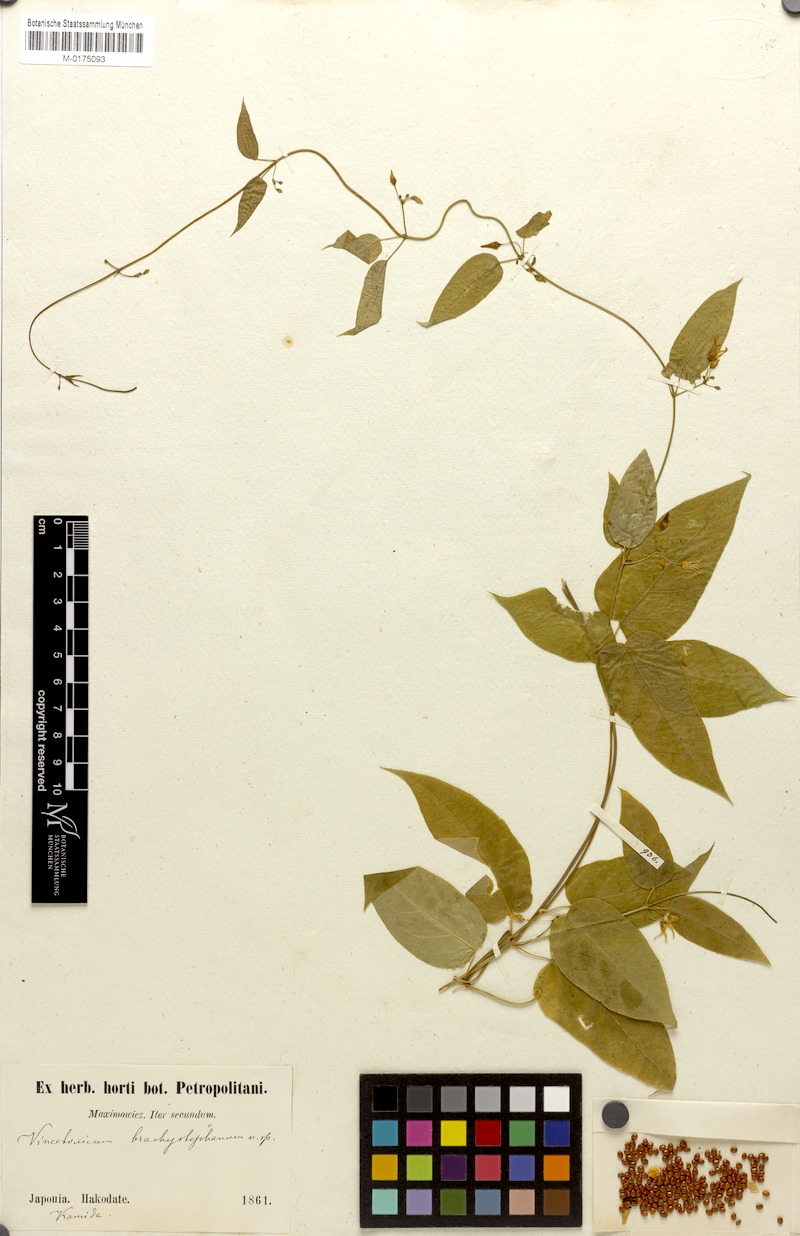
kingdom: Plantae
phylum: Tracheophyta
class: Magnoliopsida
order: Gentianales
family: Apocynaceae
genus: Vincetoxicum
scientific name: Vincetoxicum
